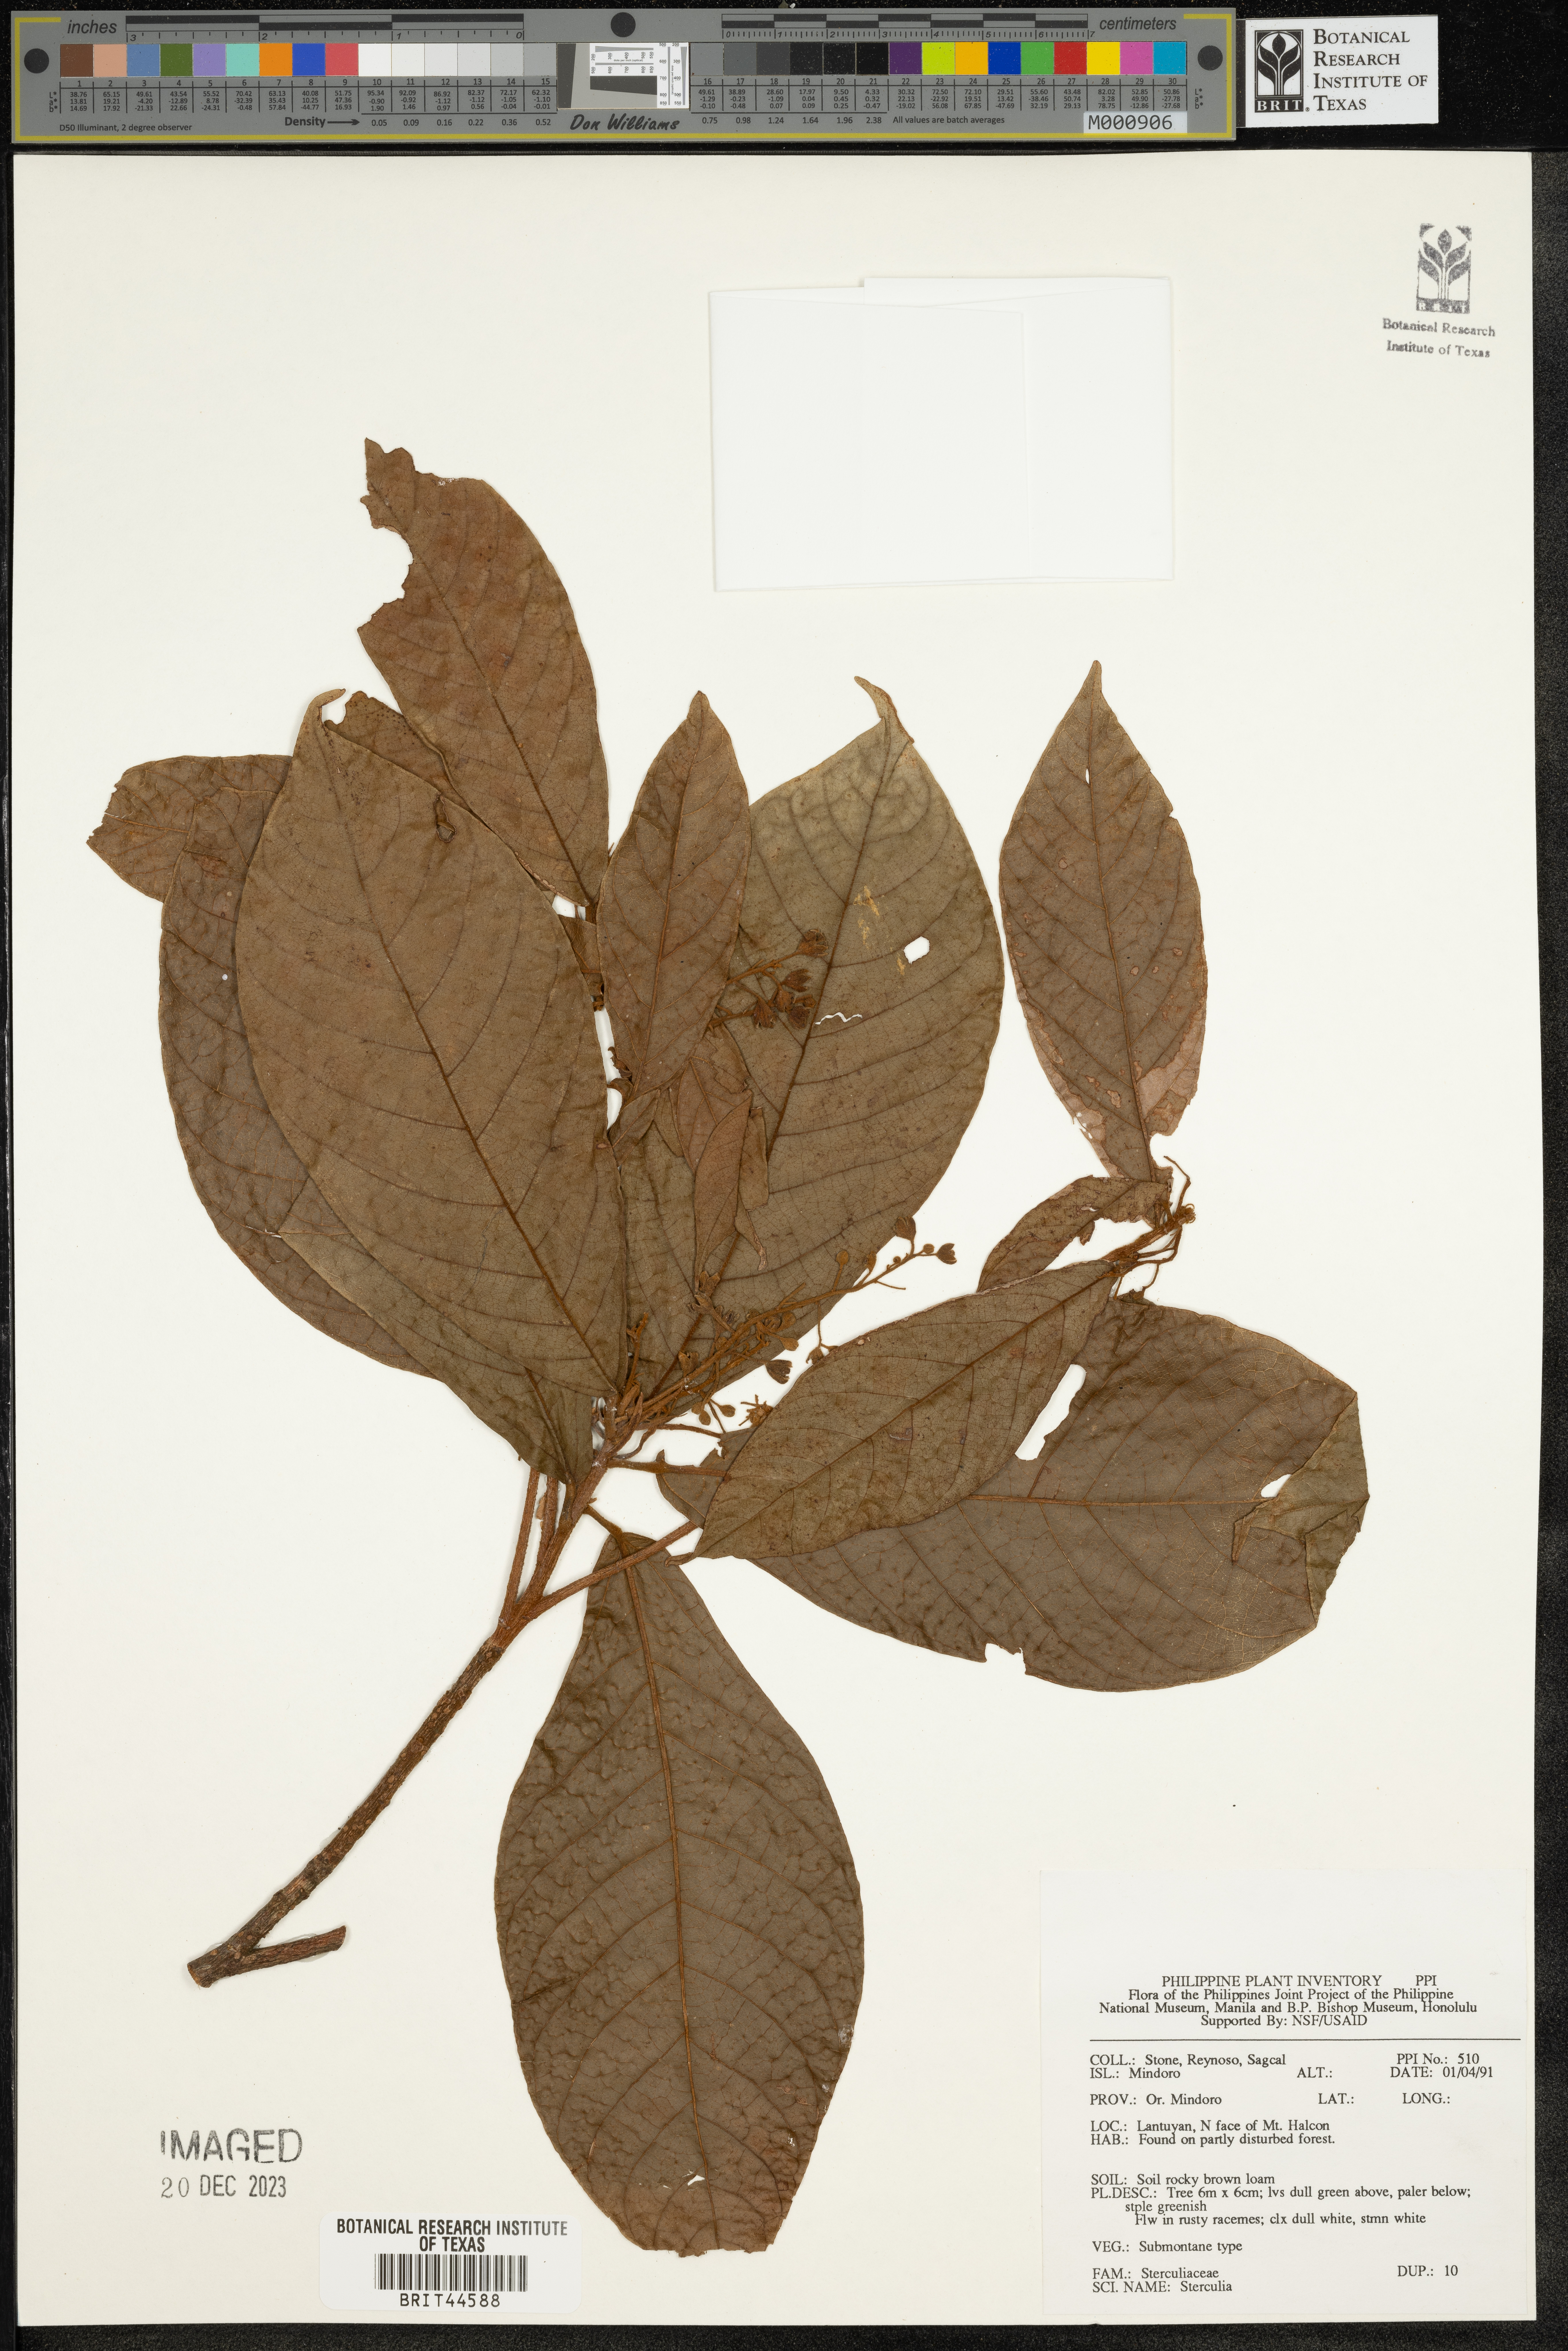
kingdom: Plantae
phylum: Tracheophyta
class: Magnoliopsida
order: Malvales
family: Malvaceae
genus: Sterculia
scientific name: Sterculia
